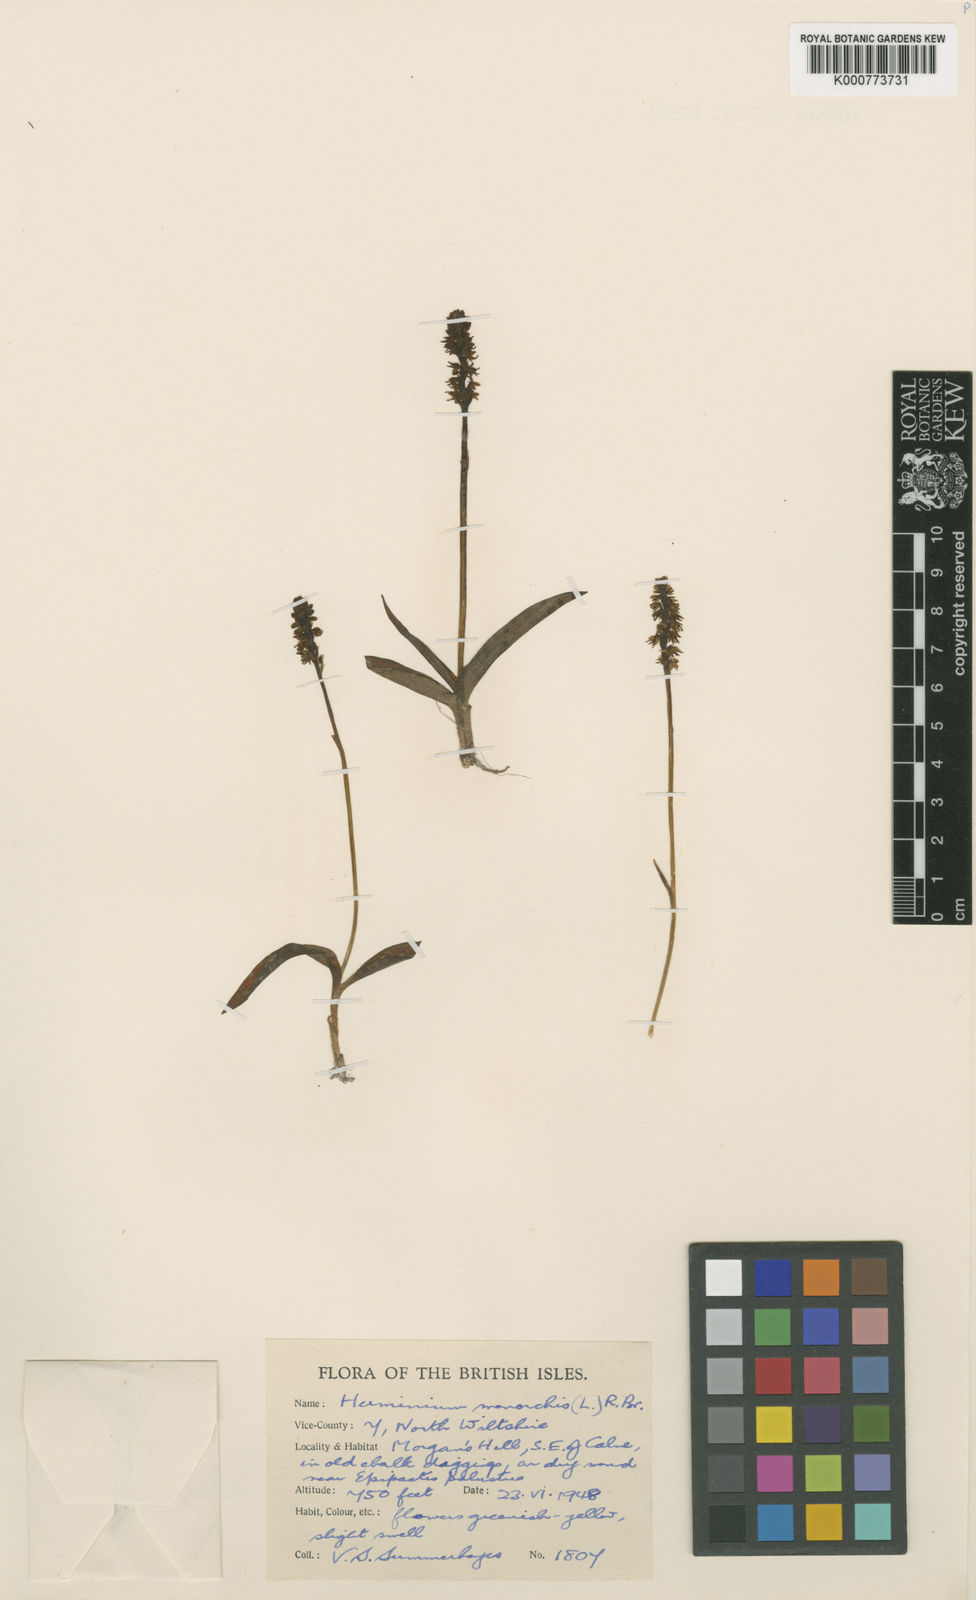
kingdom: Plantae
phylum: Tracheophyta
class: Liliopsida
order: Asparagales
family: Orchidaceae
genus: Herminium
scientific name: Herminium monorchis
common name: Musk orchid
